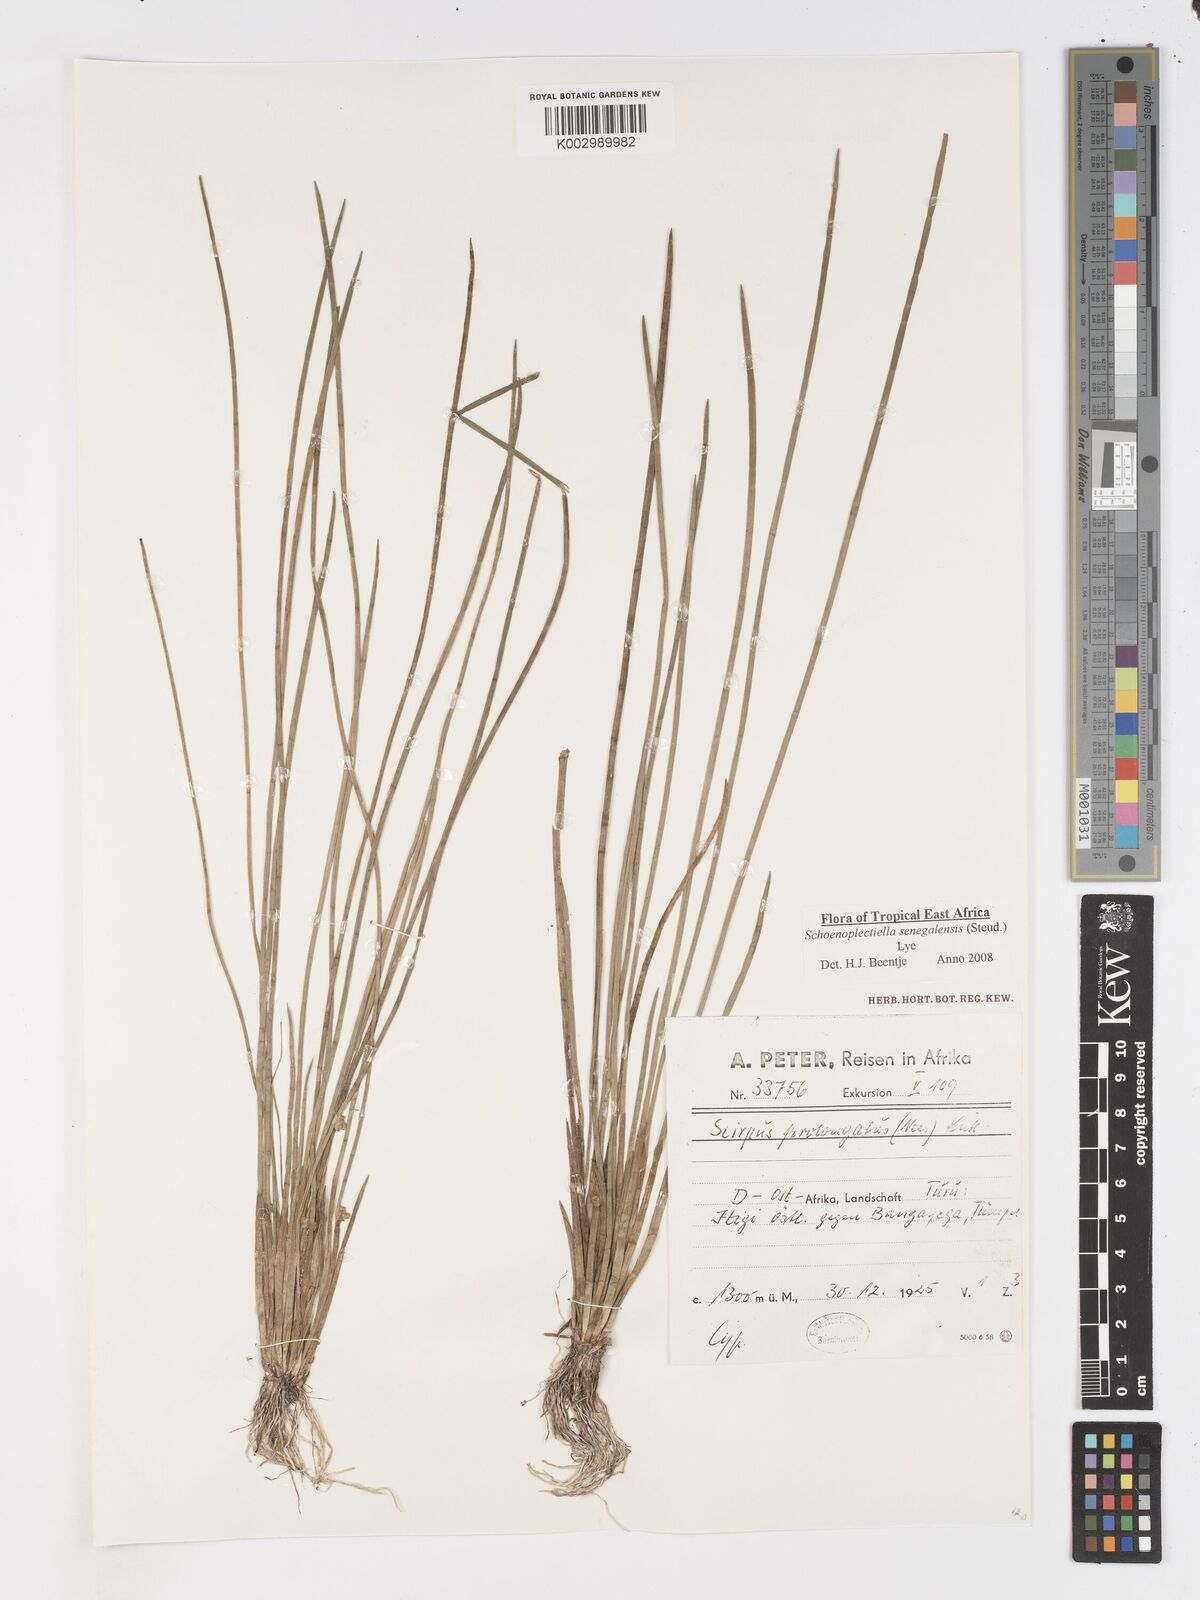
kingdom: Plantae
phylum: Tracheophyta
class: Liliopsida
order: Poales
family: Cyperaceae
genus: Schoenoplectiella
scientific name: Schoenoplectiella senegalensis
